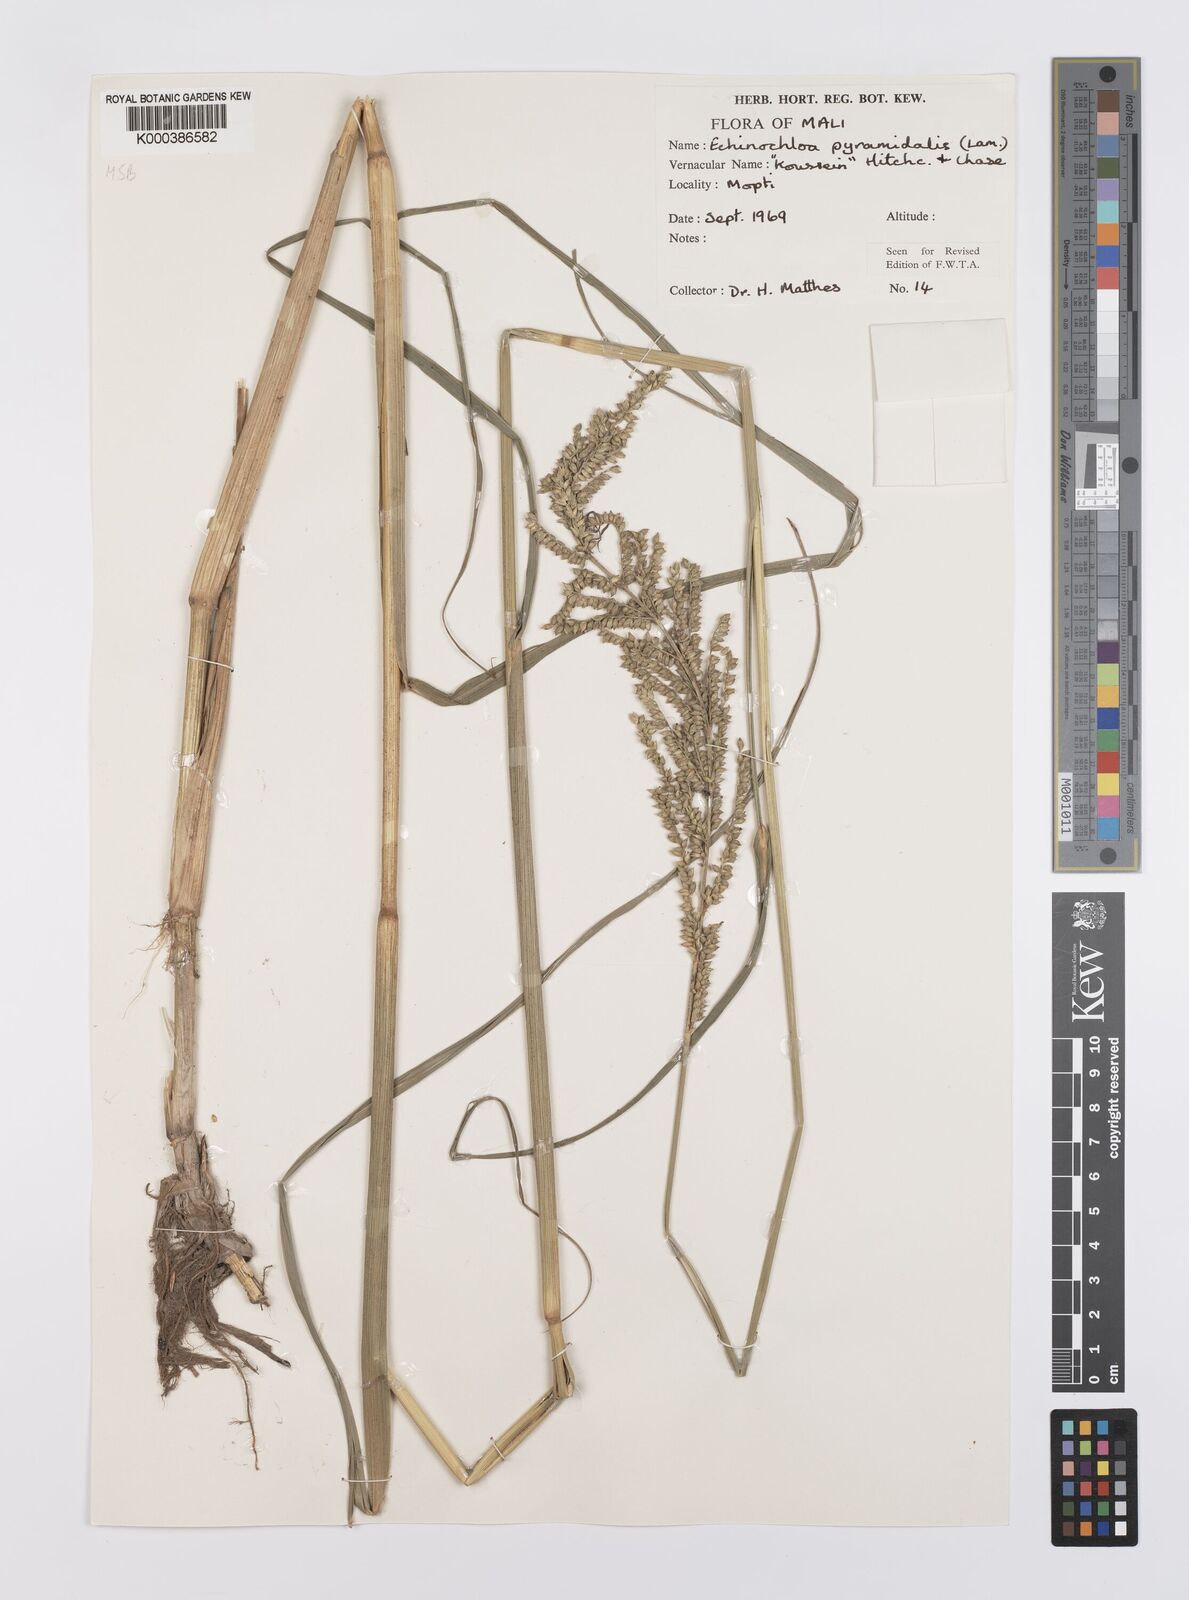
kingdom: Plantae
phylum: Tracheophyta
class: Liliopsida
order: Poales
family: Poaceae
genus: Echinochloa
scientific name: Echinochloa pyramidalis
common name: Antelope grass
